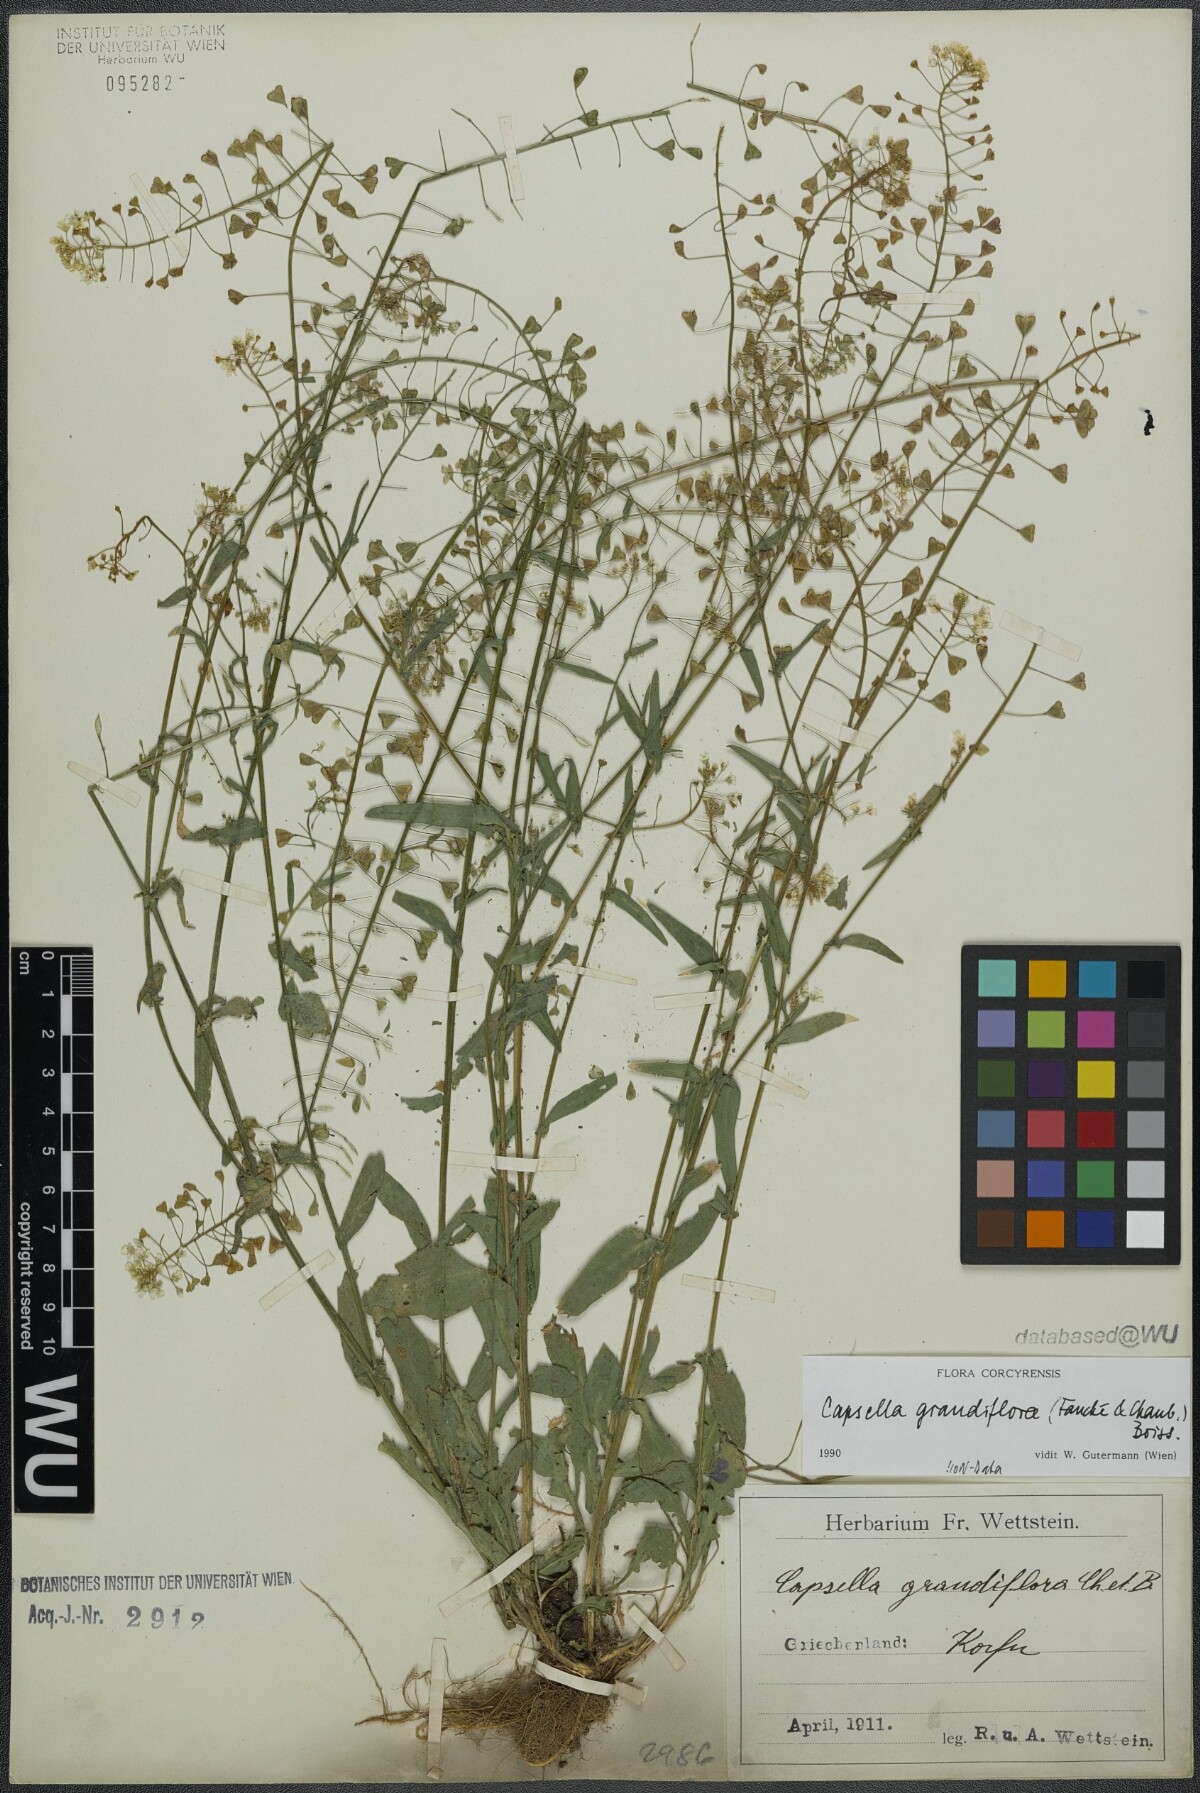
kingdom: Plantae
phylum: Tracheophyta
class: Magnoliopsida
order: Brassicales
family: Brassicaceae
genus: Capsella
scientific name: Capsella grandiflora
